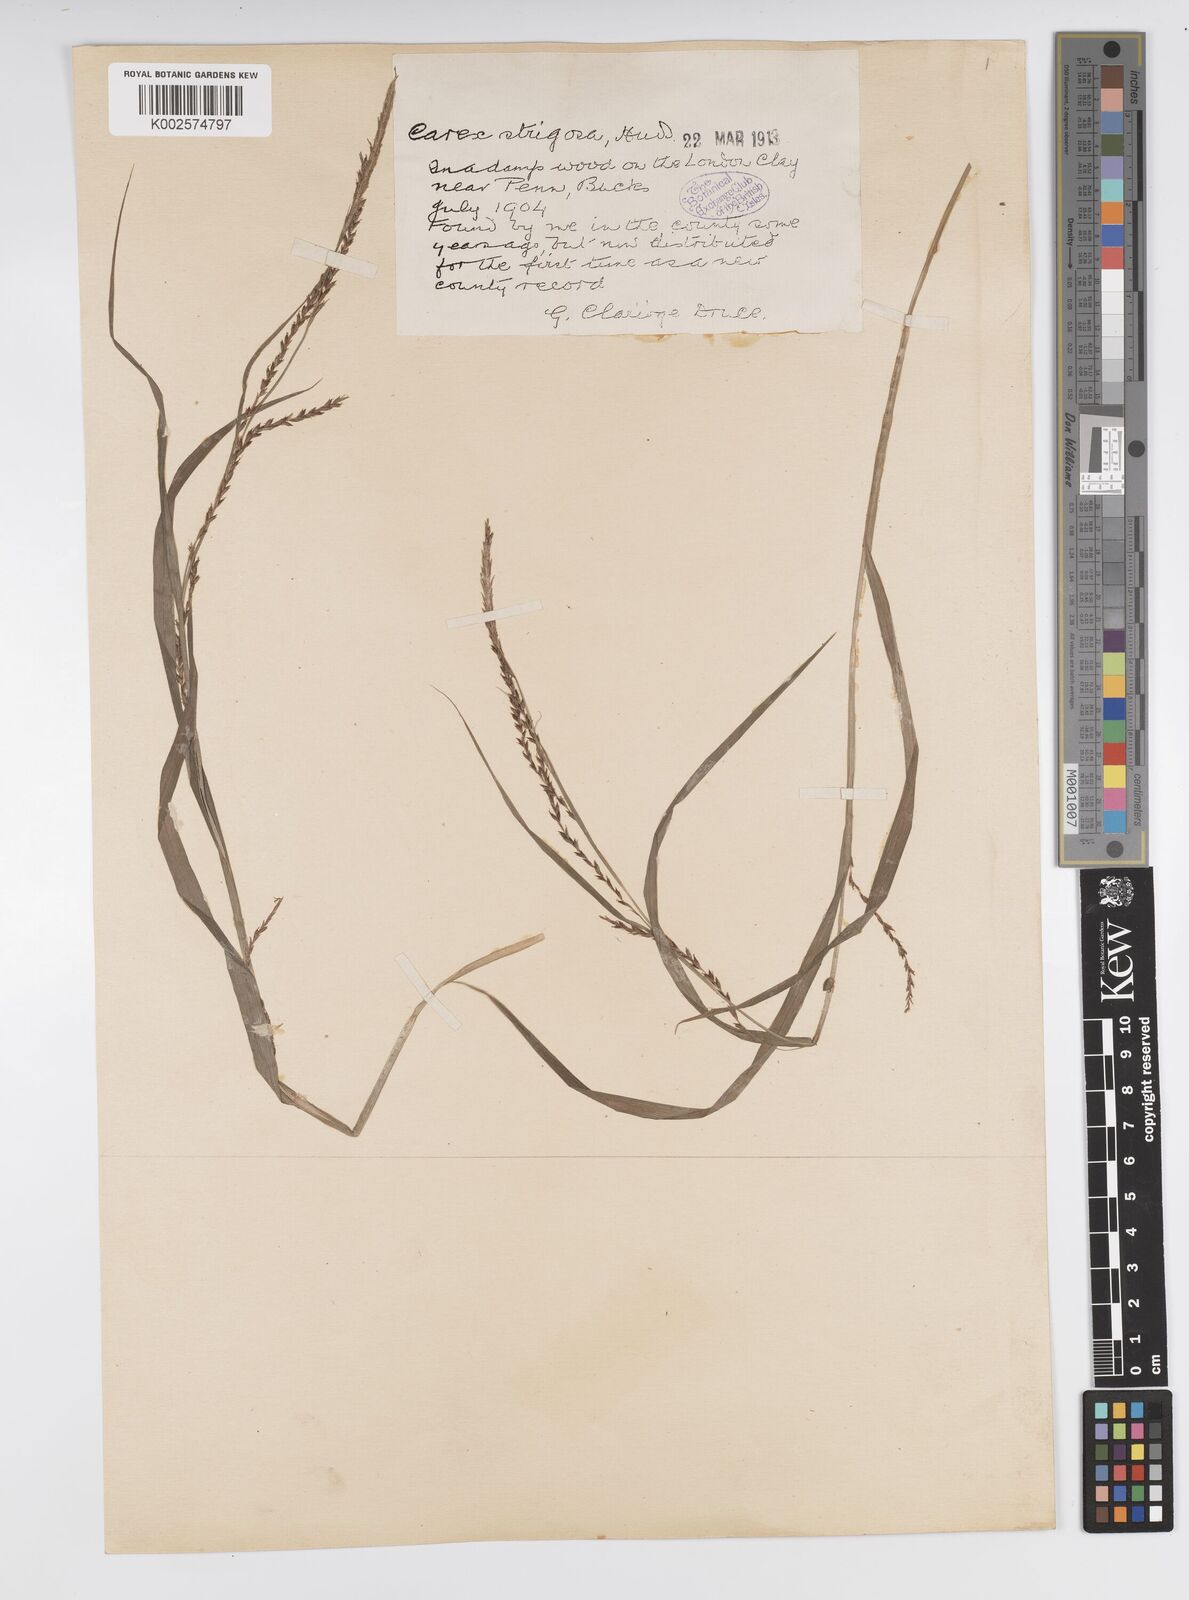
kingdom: Plantae
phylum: Tracheophyta
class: Liliopsida
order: Poales
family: Cyperaceae
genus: Carex
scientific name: Carex strigosa
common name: Thin-spiked wood-sedge
